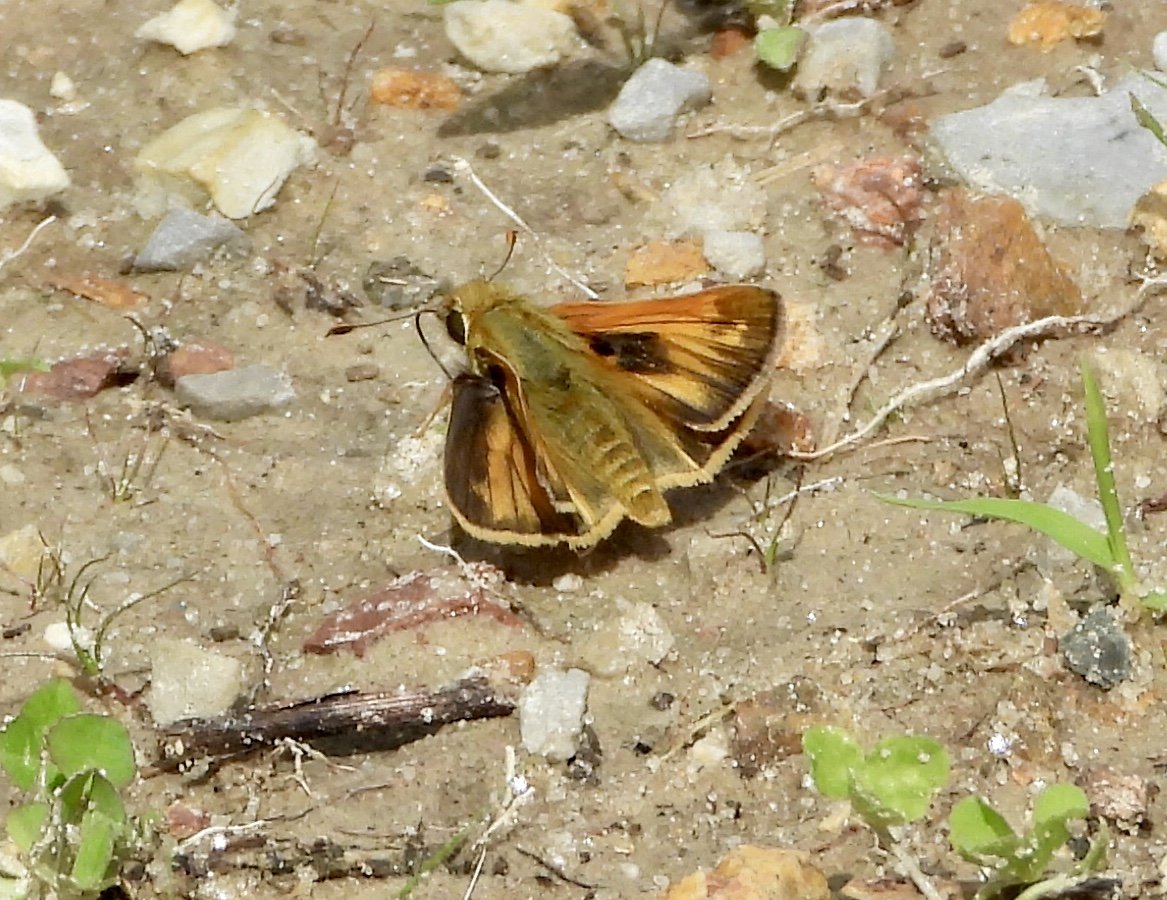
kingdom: Animalia
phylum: Arthropoda
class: Insecta
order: Lepidoptera
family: Hesperiidae
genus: Atalopedes
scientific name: Atalopedes campestris
